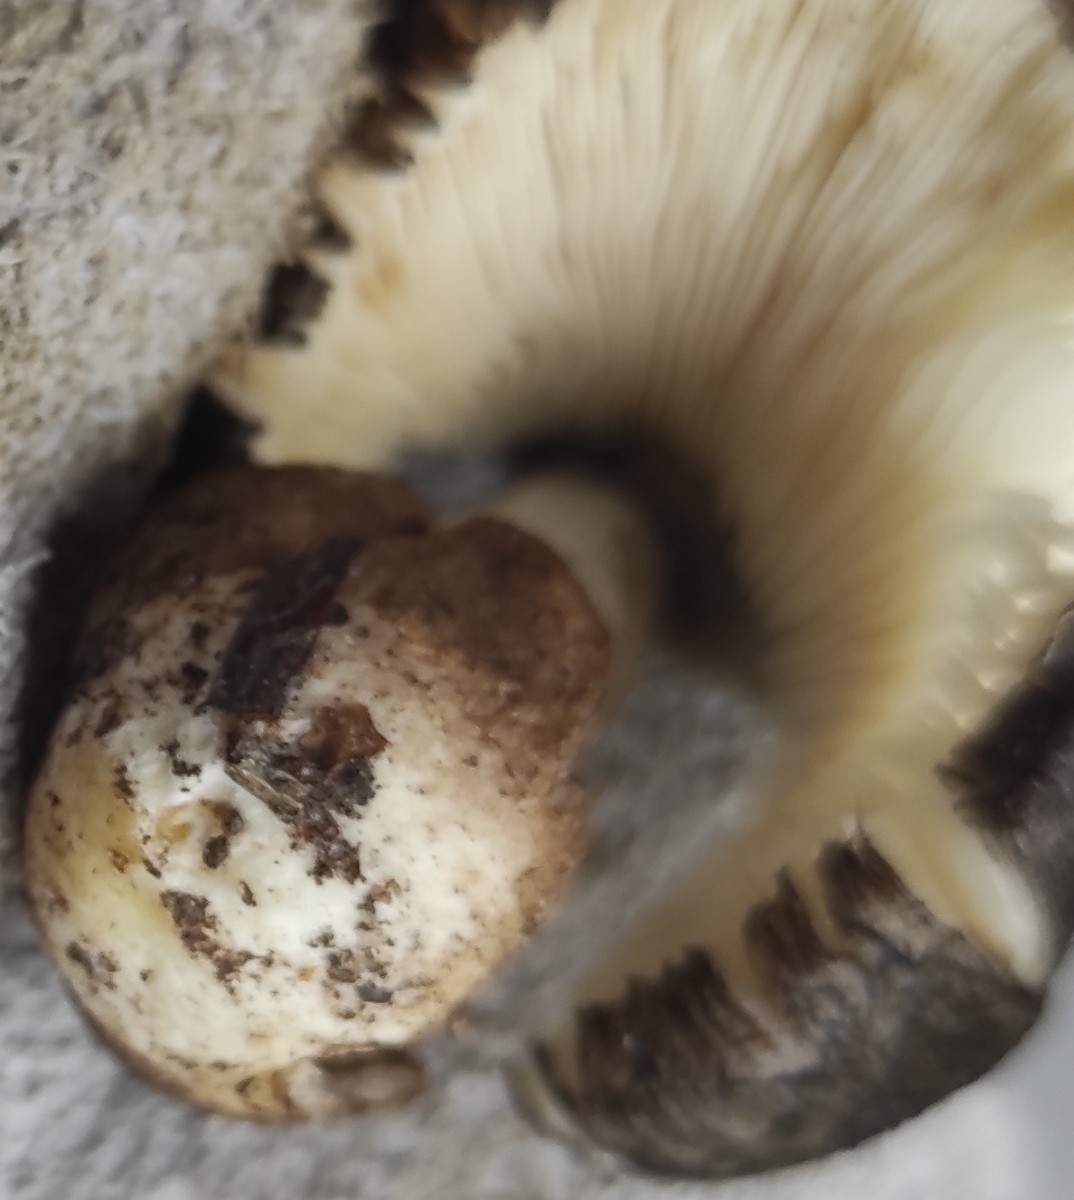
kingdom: Fungi
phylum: Basidiomycota
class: Agaricomycetes
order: Agaricales
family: Pluteaceae
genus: Volvariella
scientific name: Volvariella
